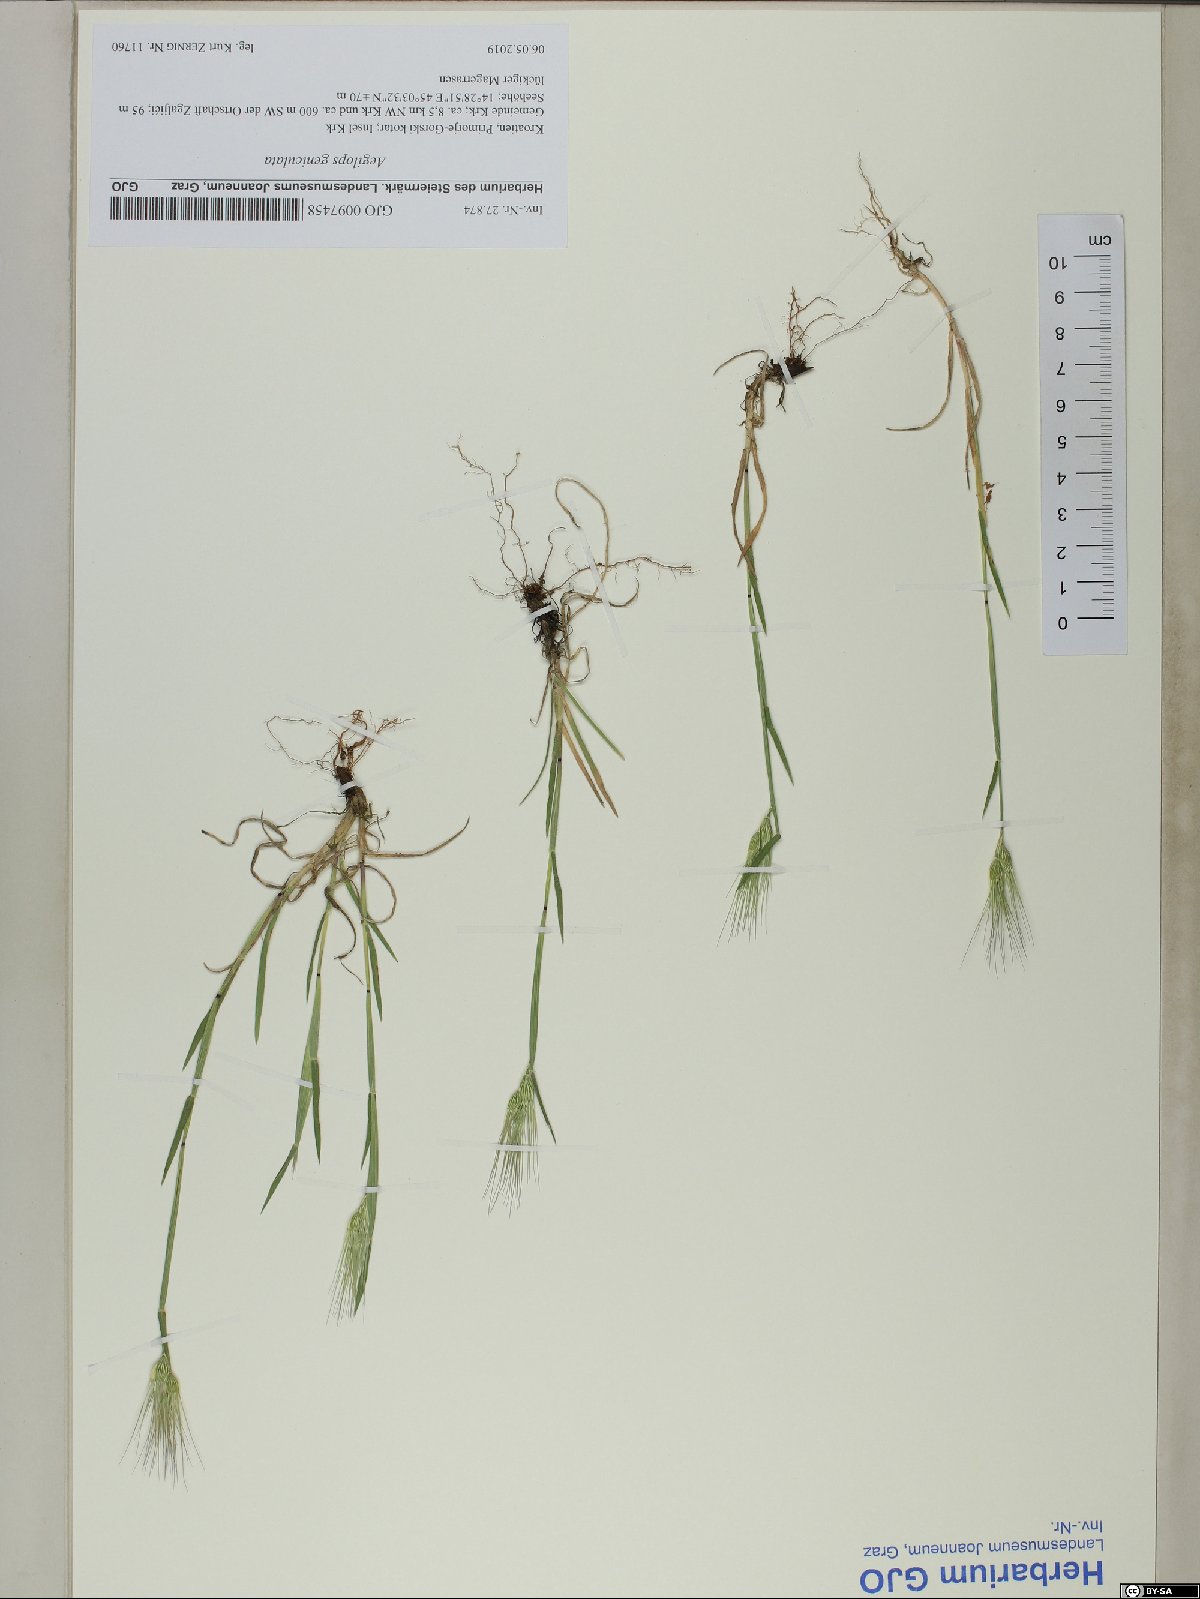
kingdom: Plantae
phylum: Tracheophyta
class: Liliopsida
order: Poales
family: Poaceae
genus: Aegilops
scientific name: Aegilops geniculata
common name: Ovate goat grass
